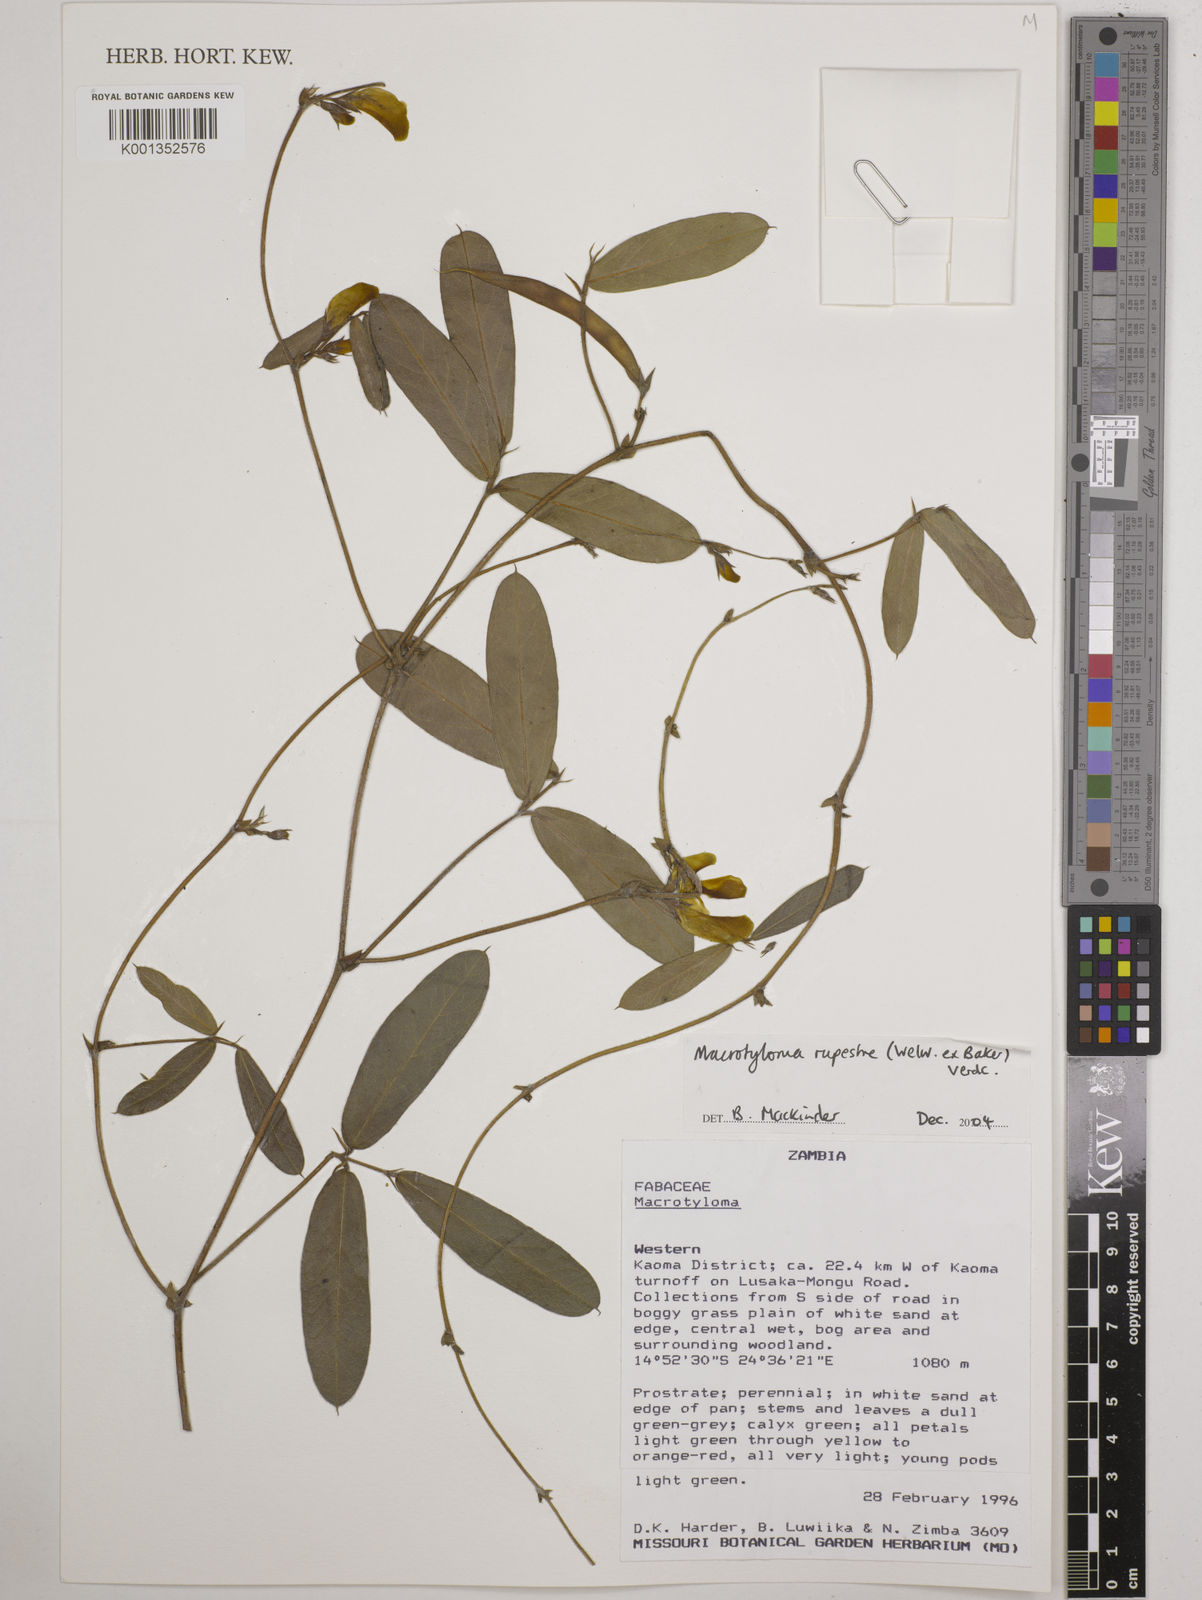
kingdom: Plantae
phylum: Tracheophyta
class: Magnoliopsida
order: Fabales
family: Fabaceae
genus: Macrotyloma
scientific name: Macrotyloma rupestre
